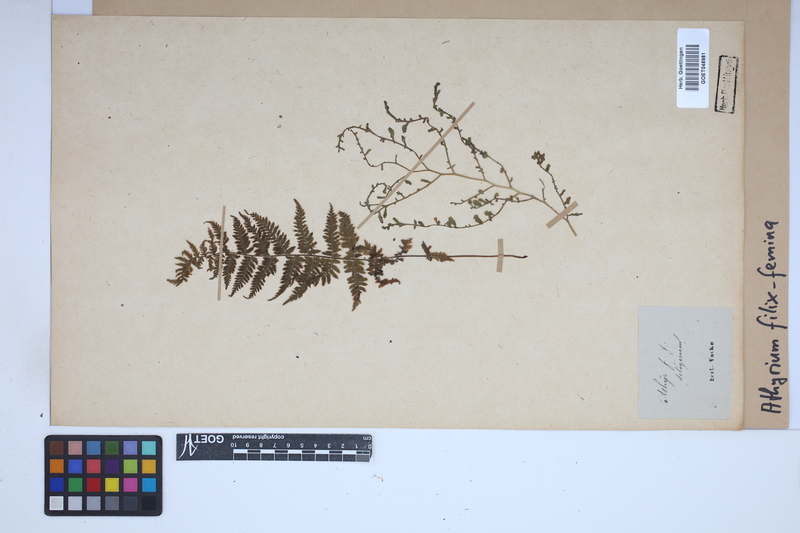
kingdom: Plantae
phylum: Tracheophyta
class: Polypodiopsida
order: Polypodiales
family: Athyriaceae
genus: Athyrium
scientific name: Athyrium filix-femina
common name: Lady fern
